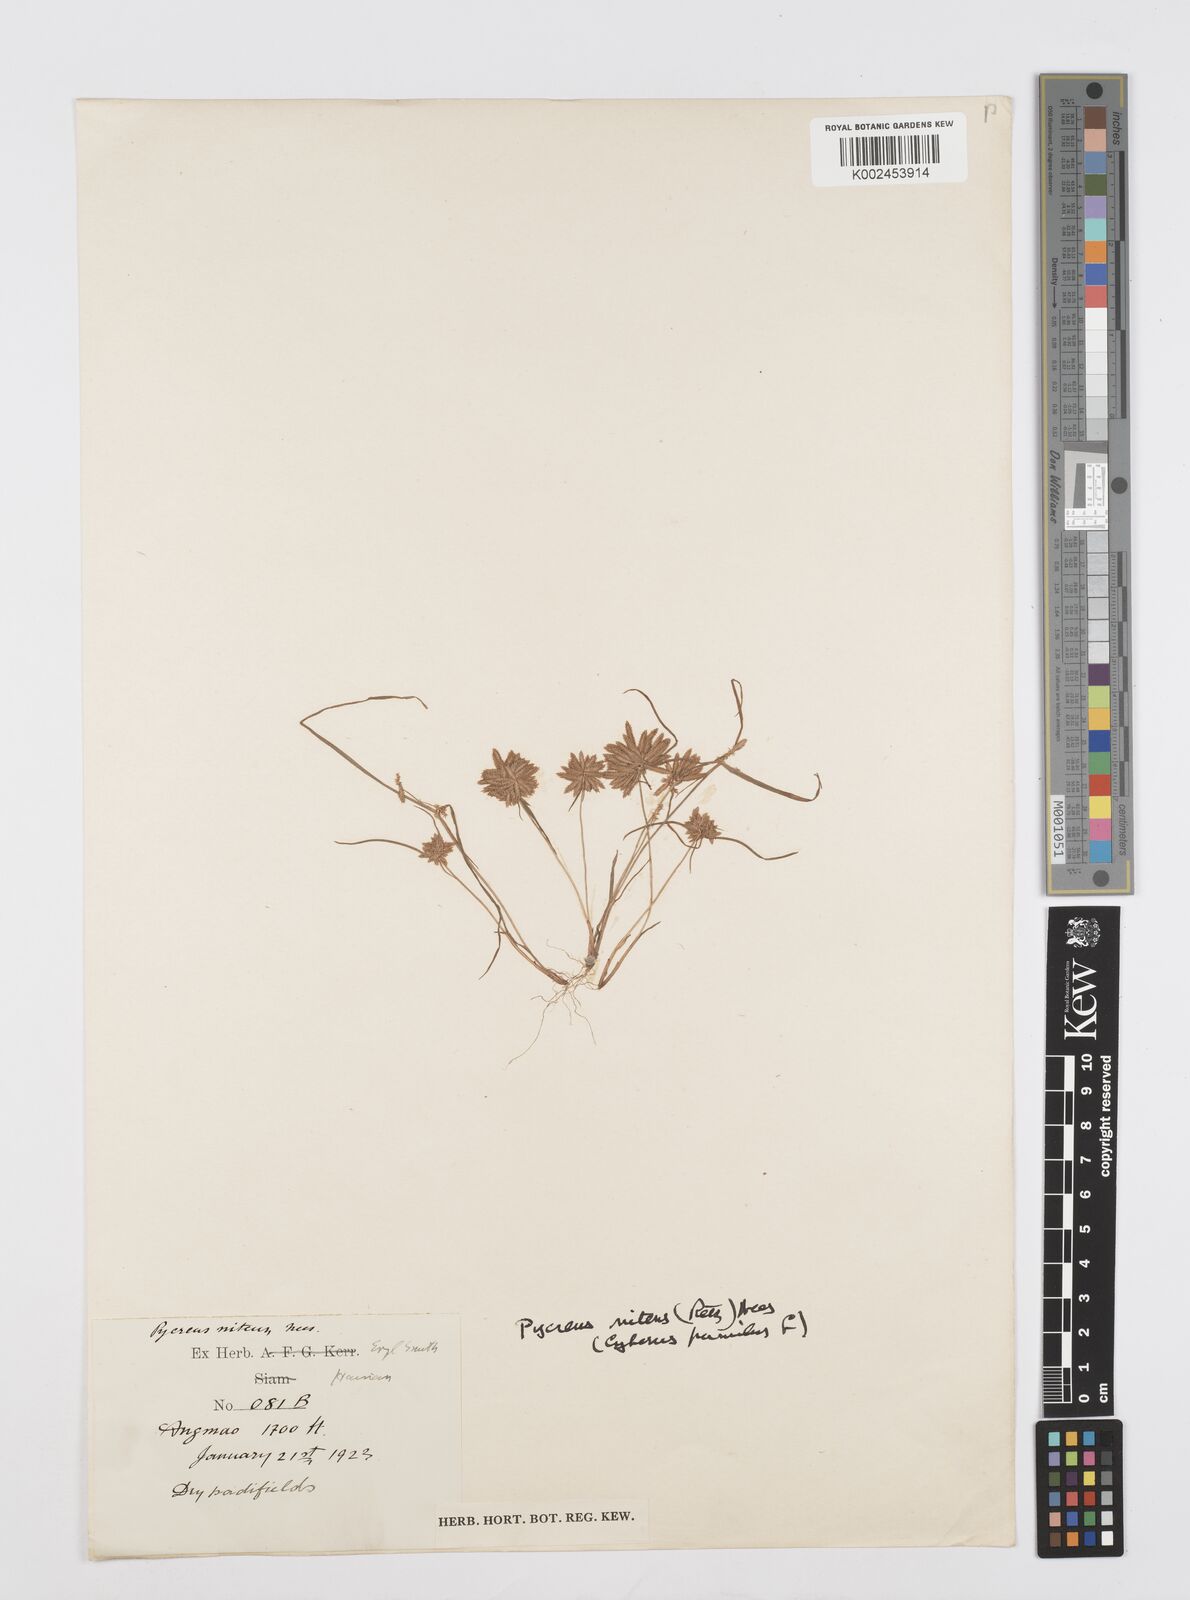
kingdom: Plantae
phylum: Tracheophyta
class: Liliopsida
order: Poales
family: Cyperaceae
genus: Cyperus
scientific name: Cyperus pumilus
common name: Low flatsedge
